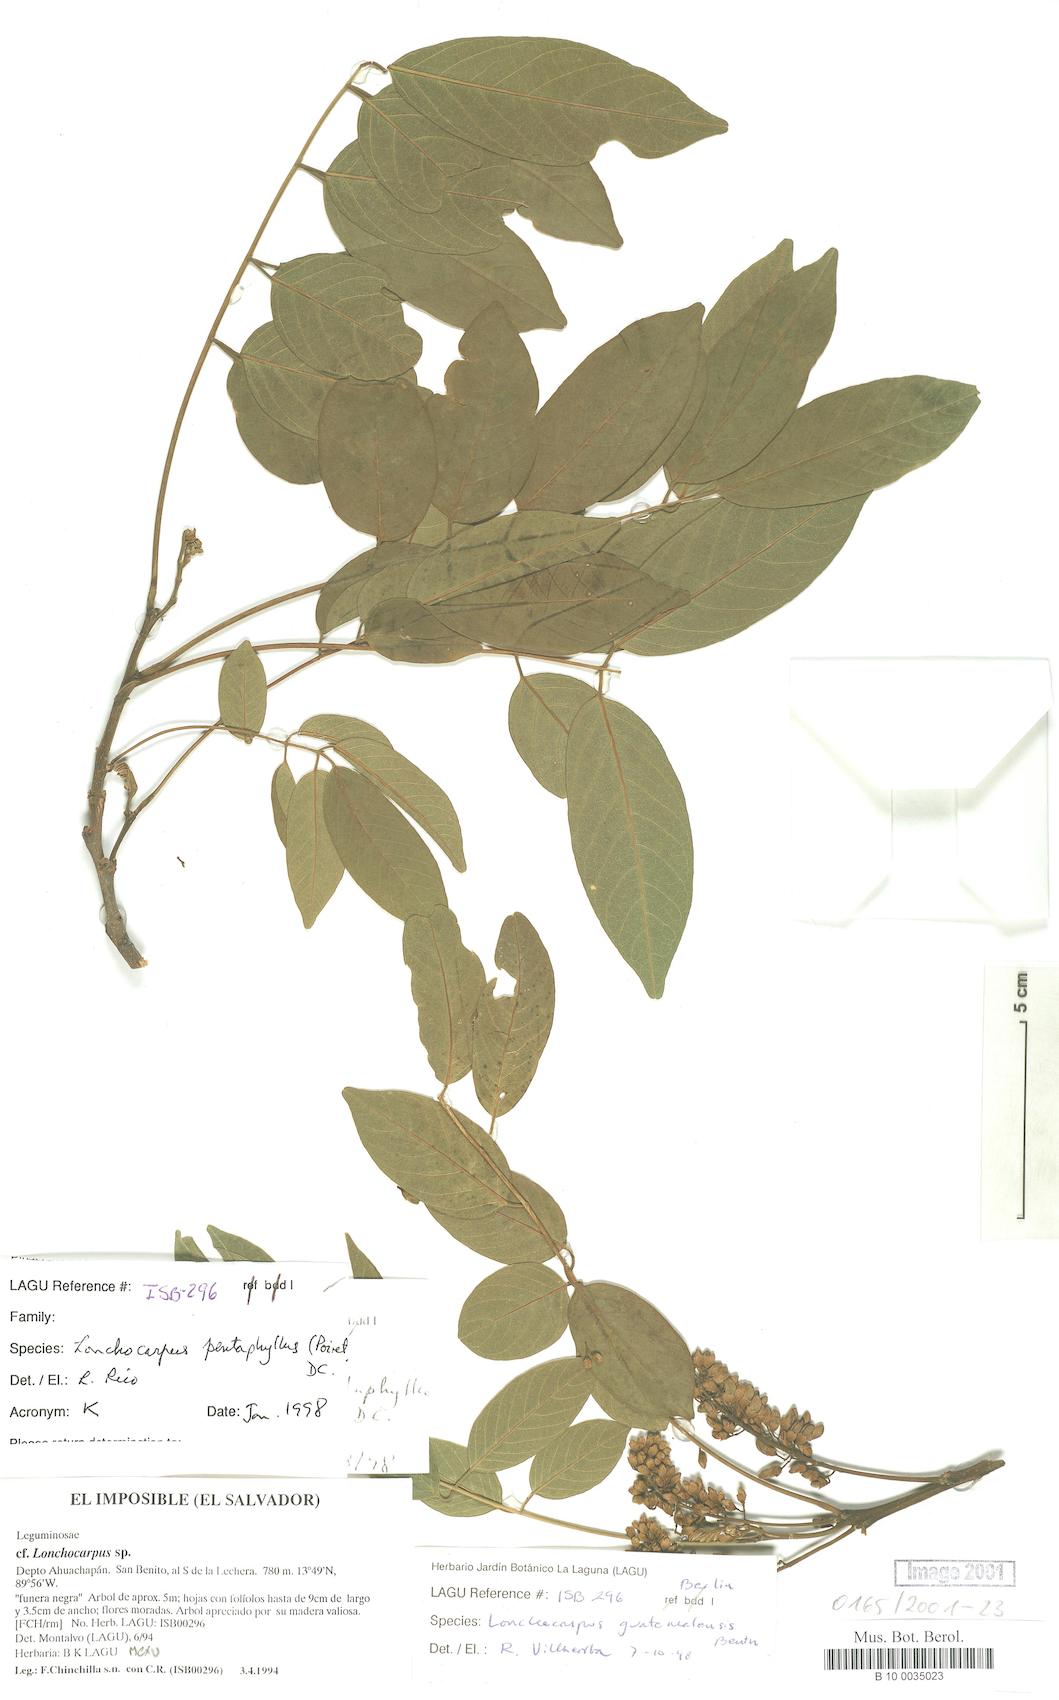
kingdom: Plantae
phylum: Tracheophyta
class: Magnoliopsida
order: Fabales
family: Fabaceae
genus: Lonchocarpus
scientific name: Lonchocarpus purpureus
